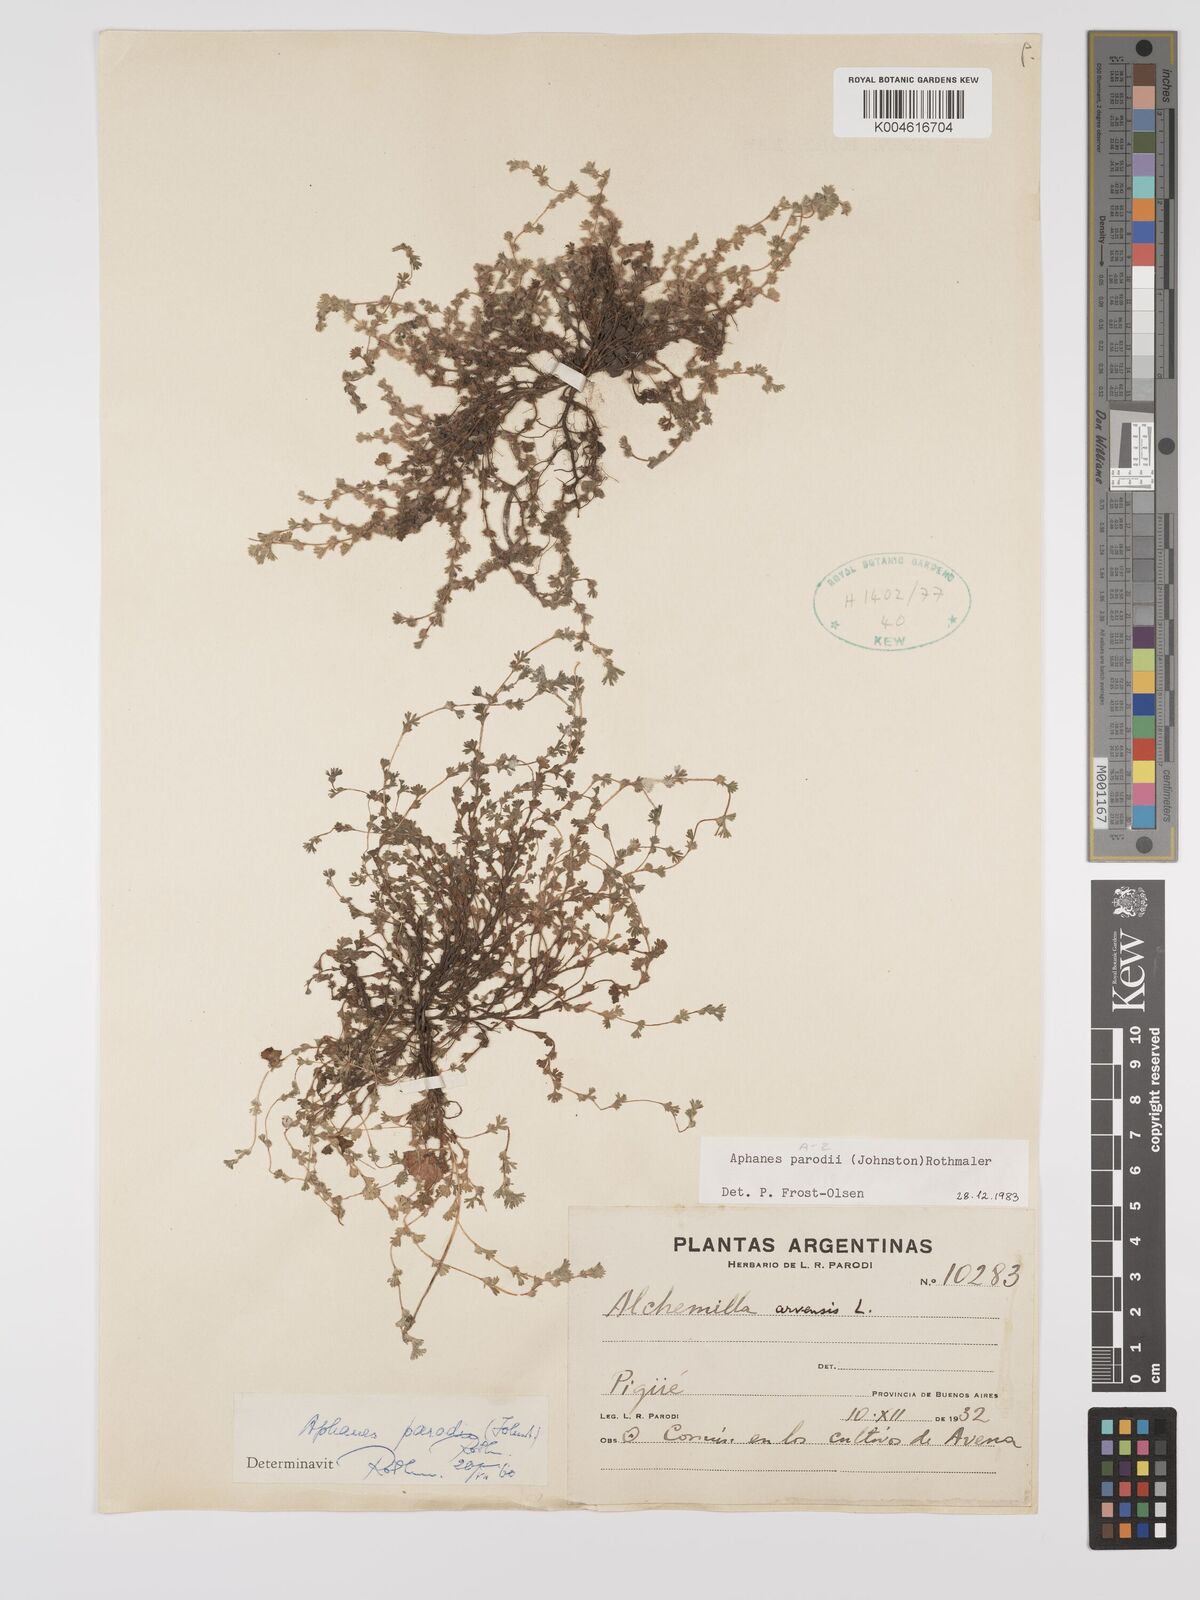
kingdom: Plantae
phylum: Tracheophyta
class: Magnoliopsida
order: Rosales
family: Rosaceae
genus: Aphanes
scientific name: Aphanes arvensis
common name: Parsley-piert
